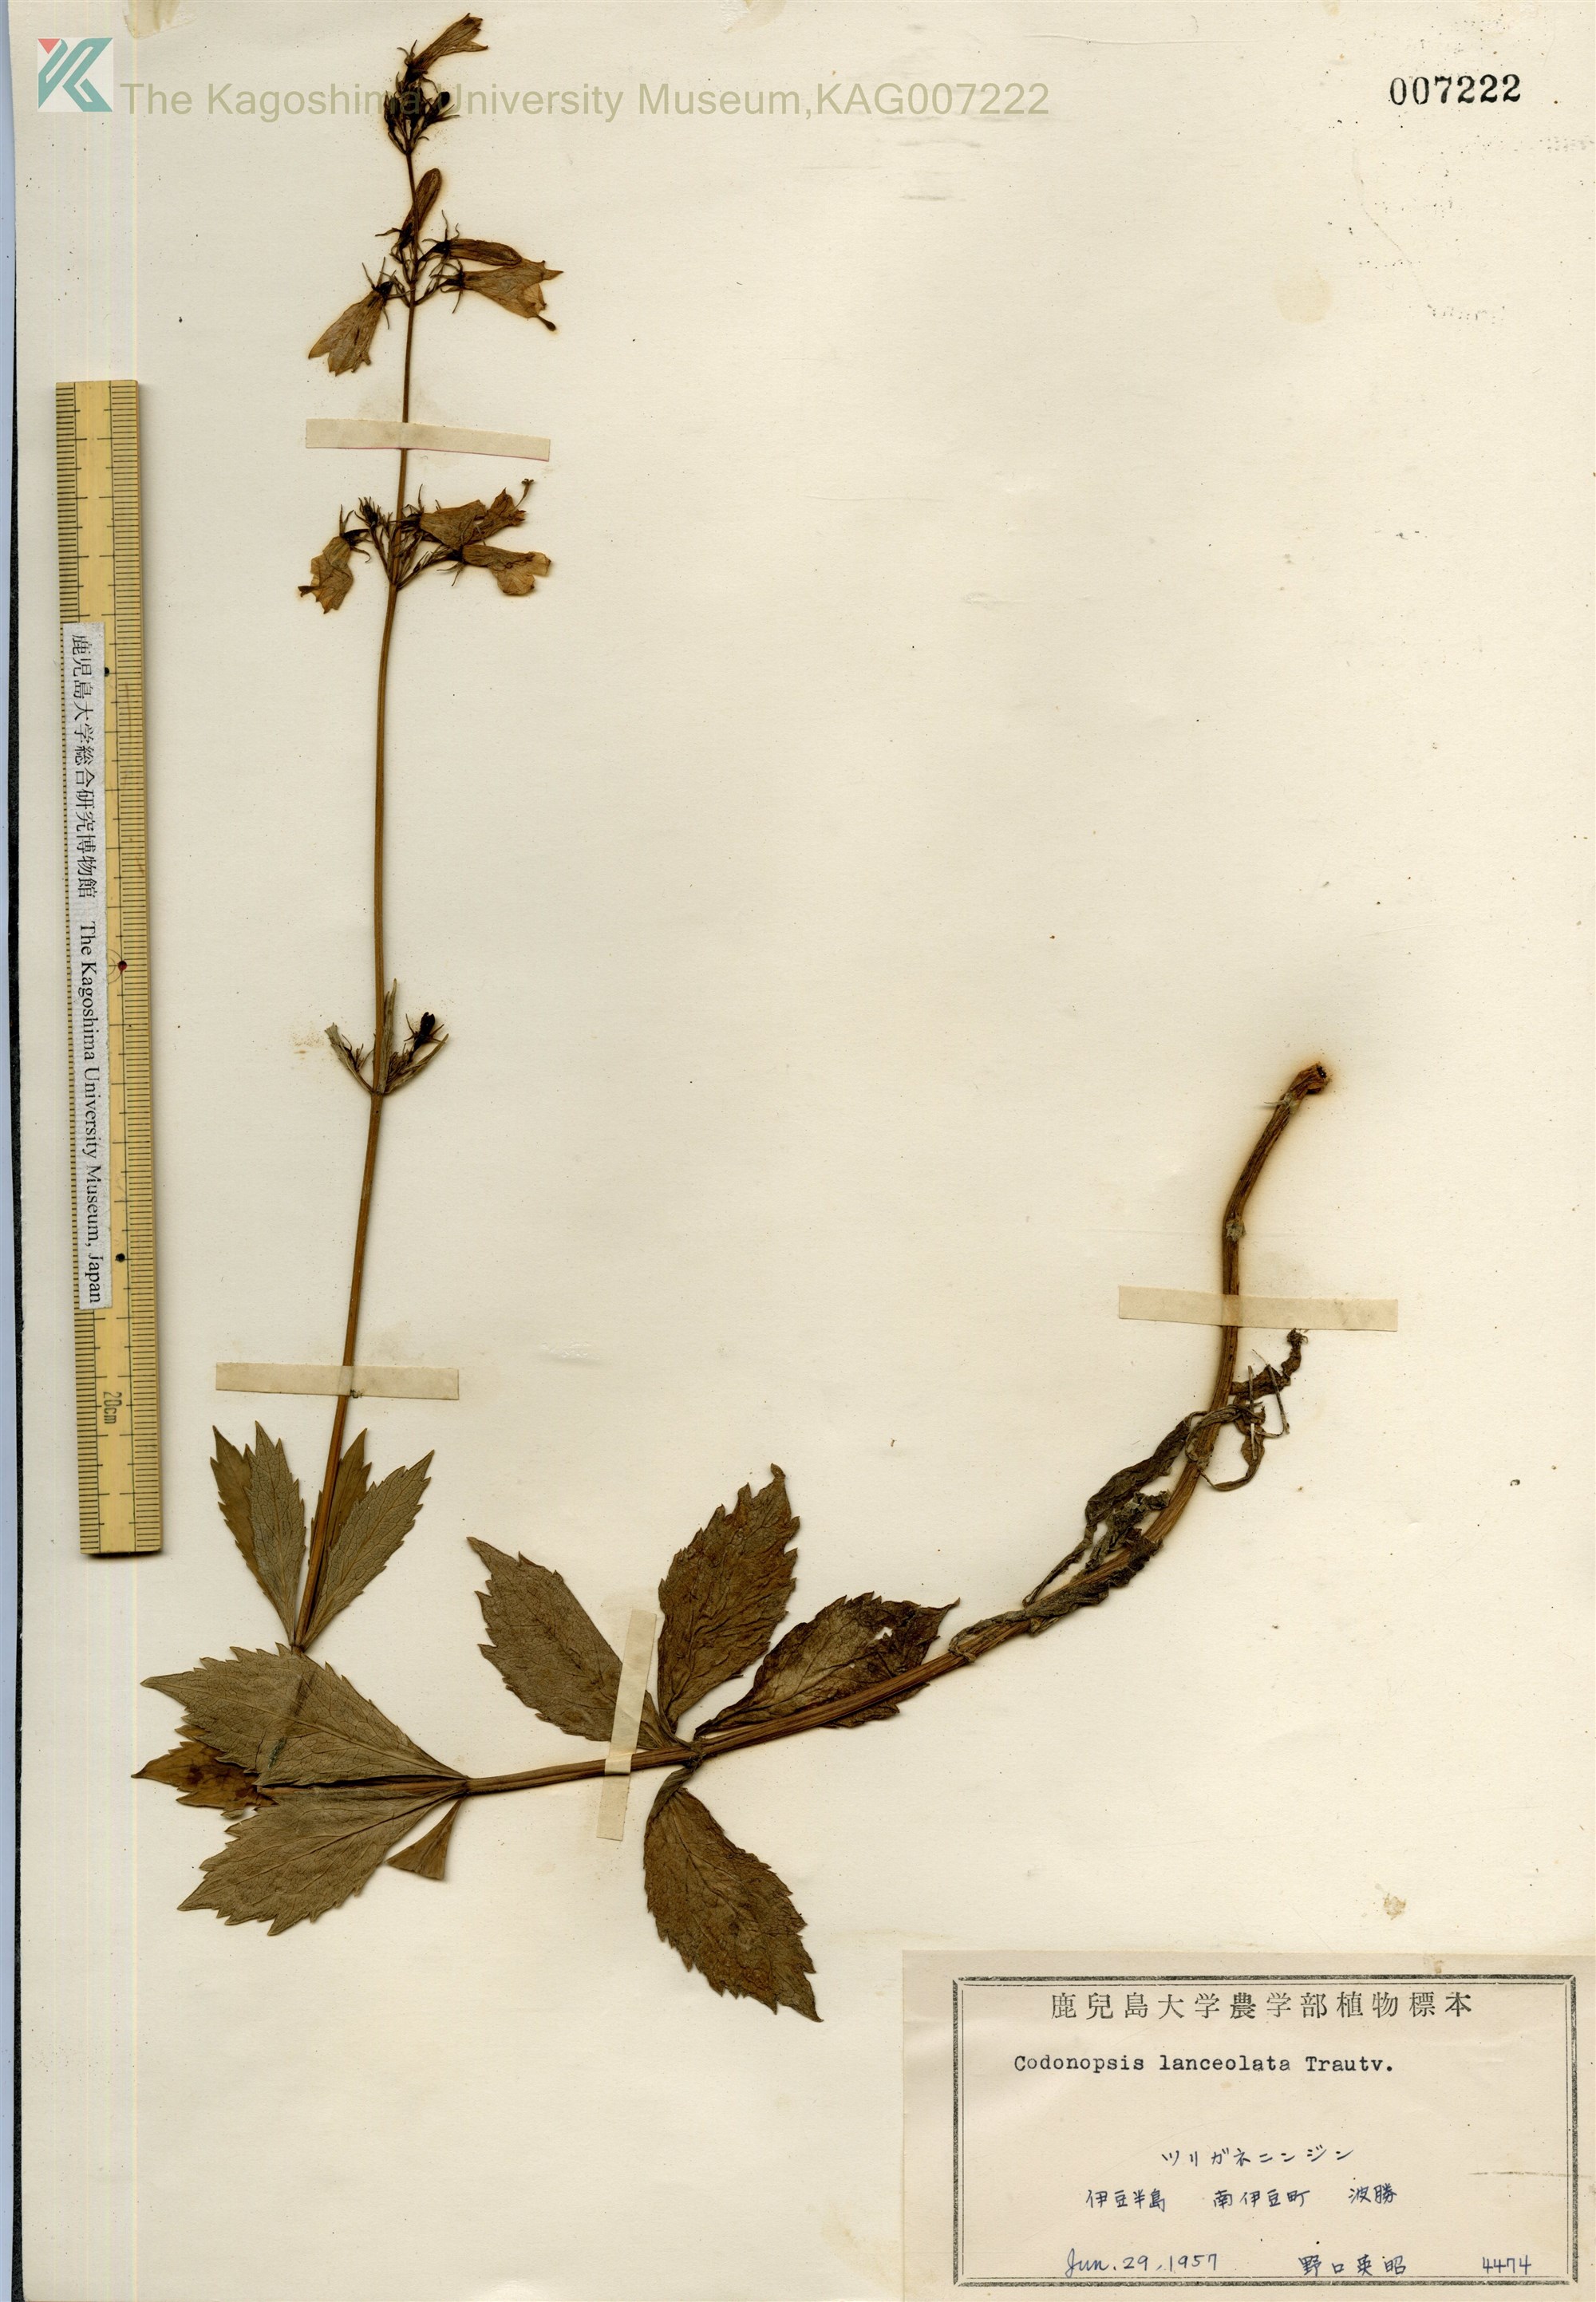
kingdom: Plantae
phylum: Tracheophyta
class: Magnoliopsida
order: Asterales
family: Campanulaceae
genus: Adenophora
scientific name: Adenophora triphylla
